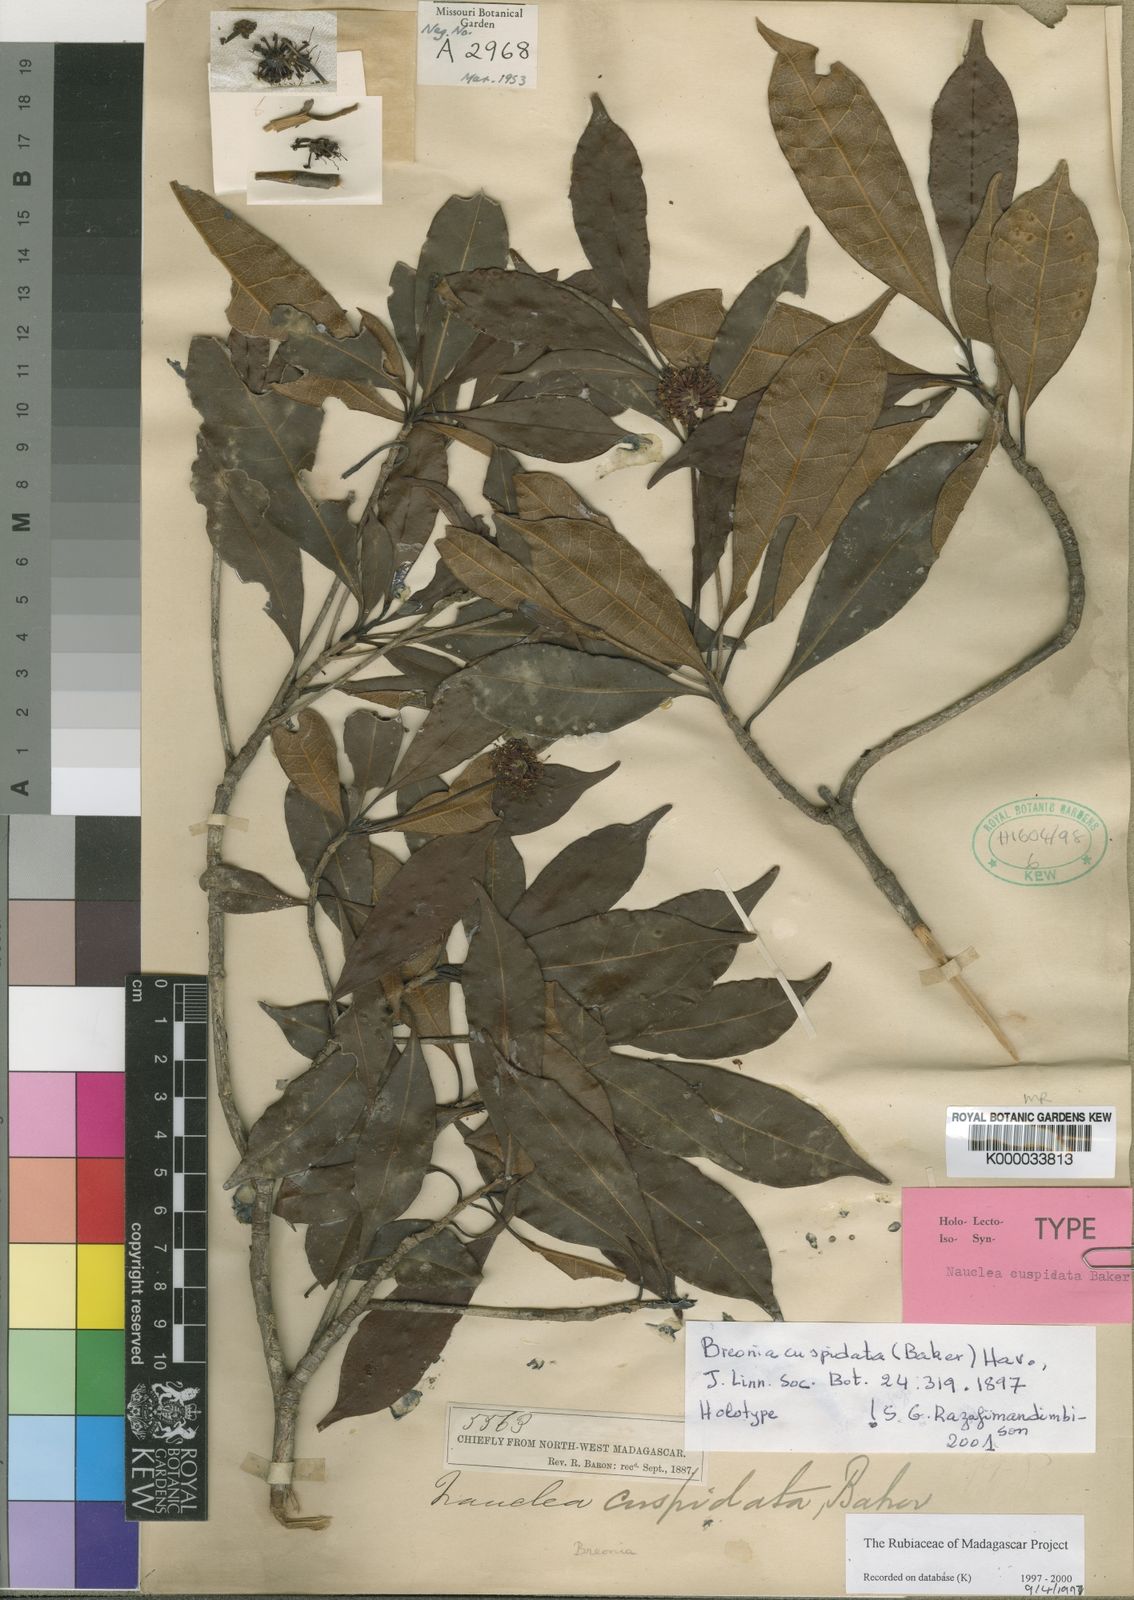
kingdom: Plantae
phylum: Tracheophyta
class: Magnoliopsida
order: Gentianales
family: Rubiaceae
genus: Breonia
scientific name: Breonia cuspidata
